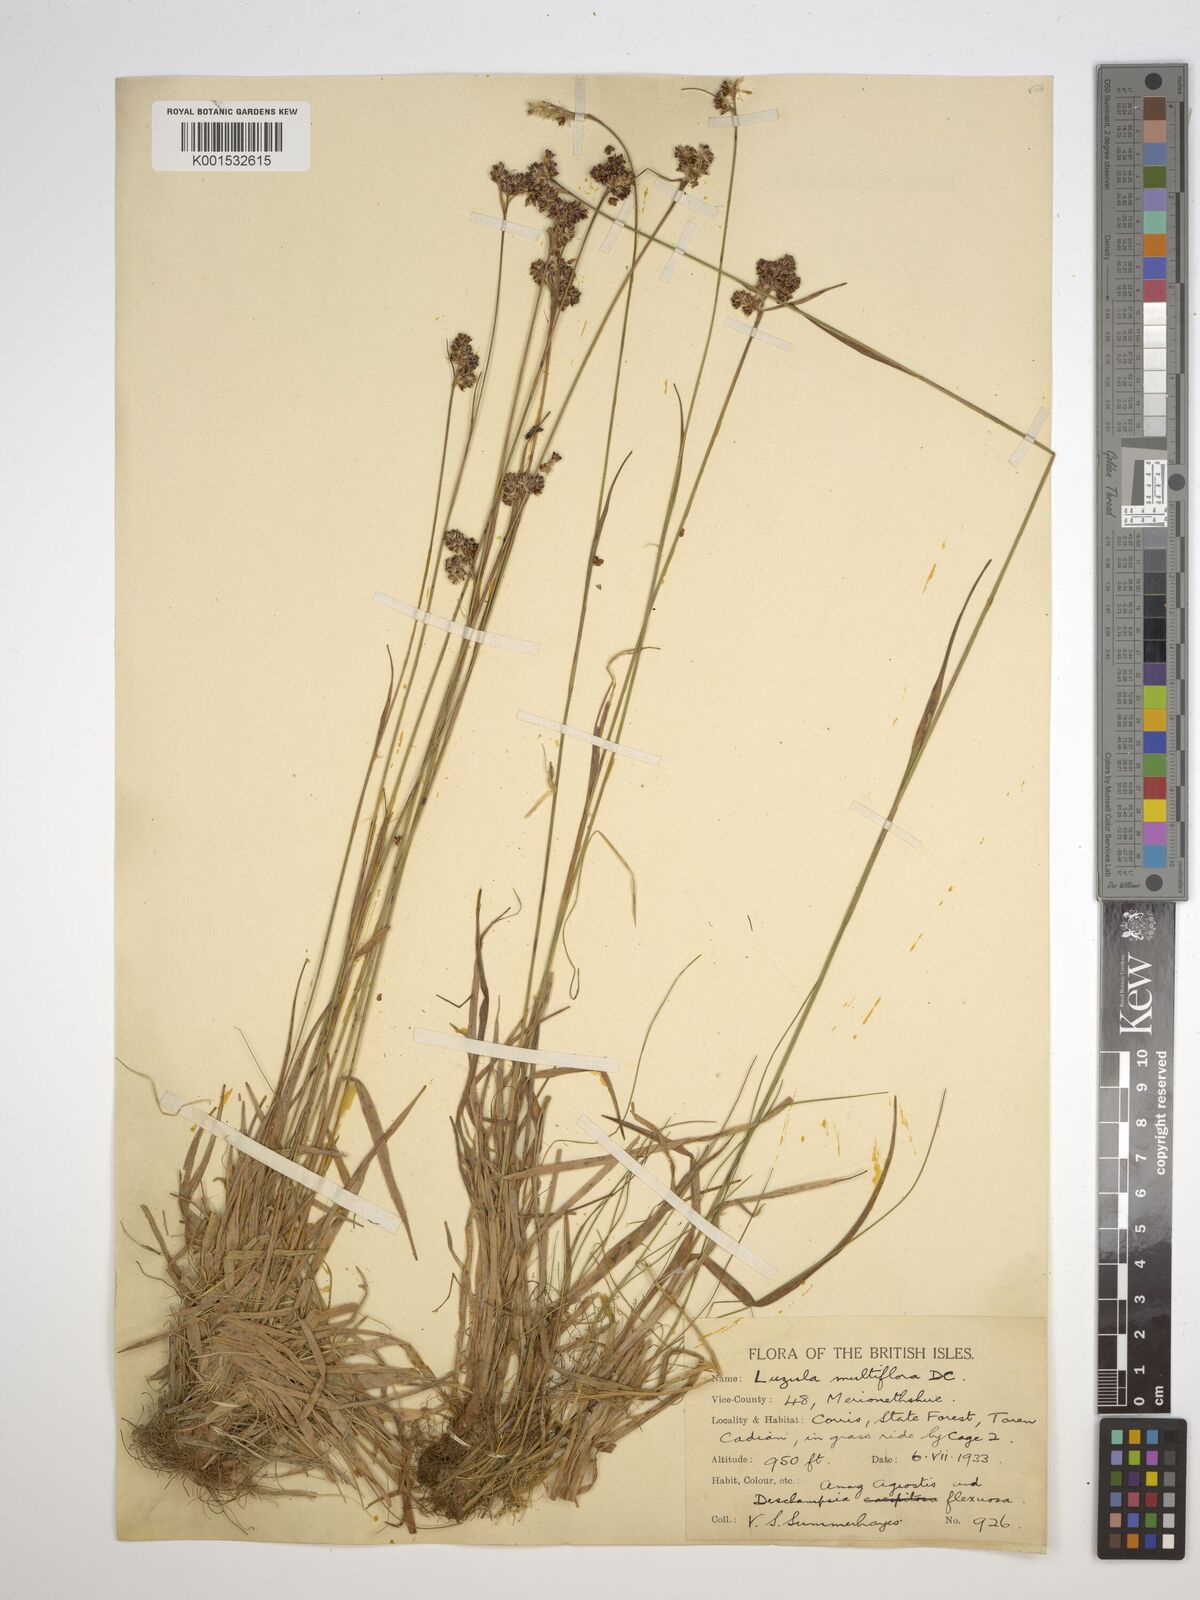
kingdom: Plantae
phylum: Tracheophyta
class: Liliopsida
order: Poales
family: Juncaceae
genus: Luzula
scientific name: Luzula multiflora
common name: Heath wood-rush
